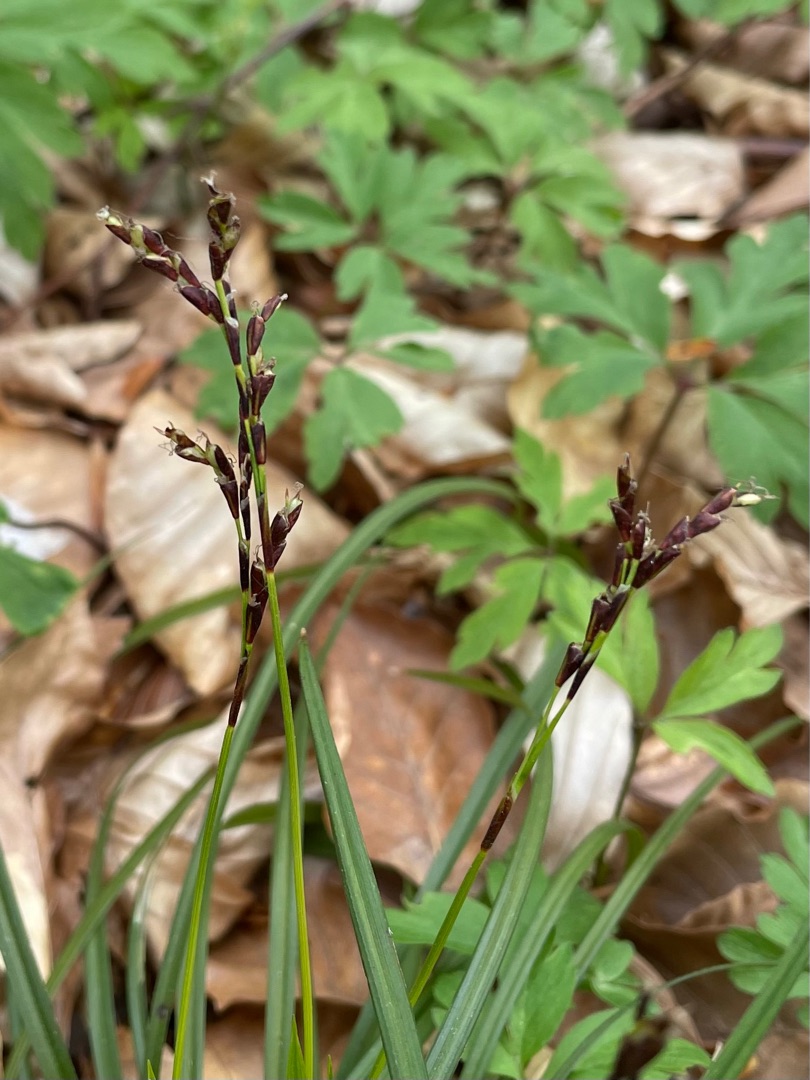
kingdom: Plantae
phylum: Tracheophyta
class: Liliopsida
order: Poales
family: Cyperaceae
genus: Carex
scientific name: Carex digitata
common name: Finger-star
